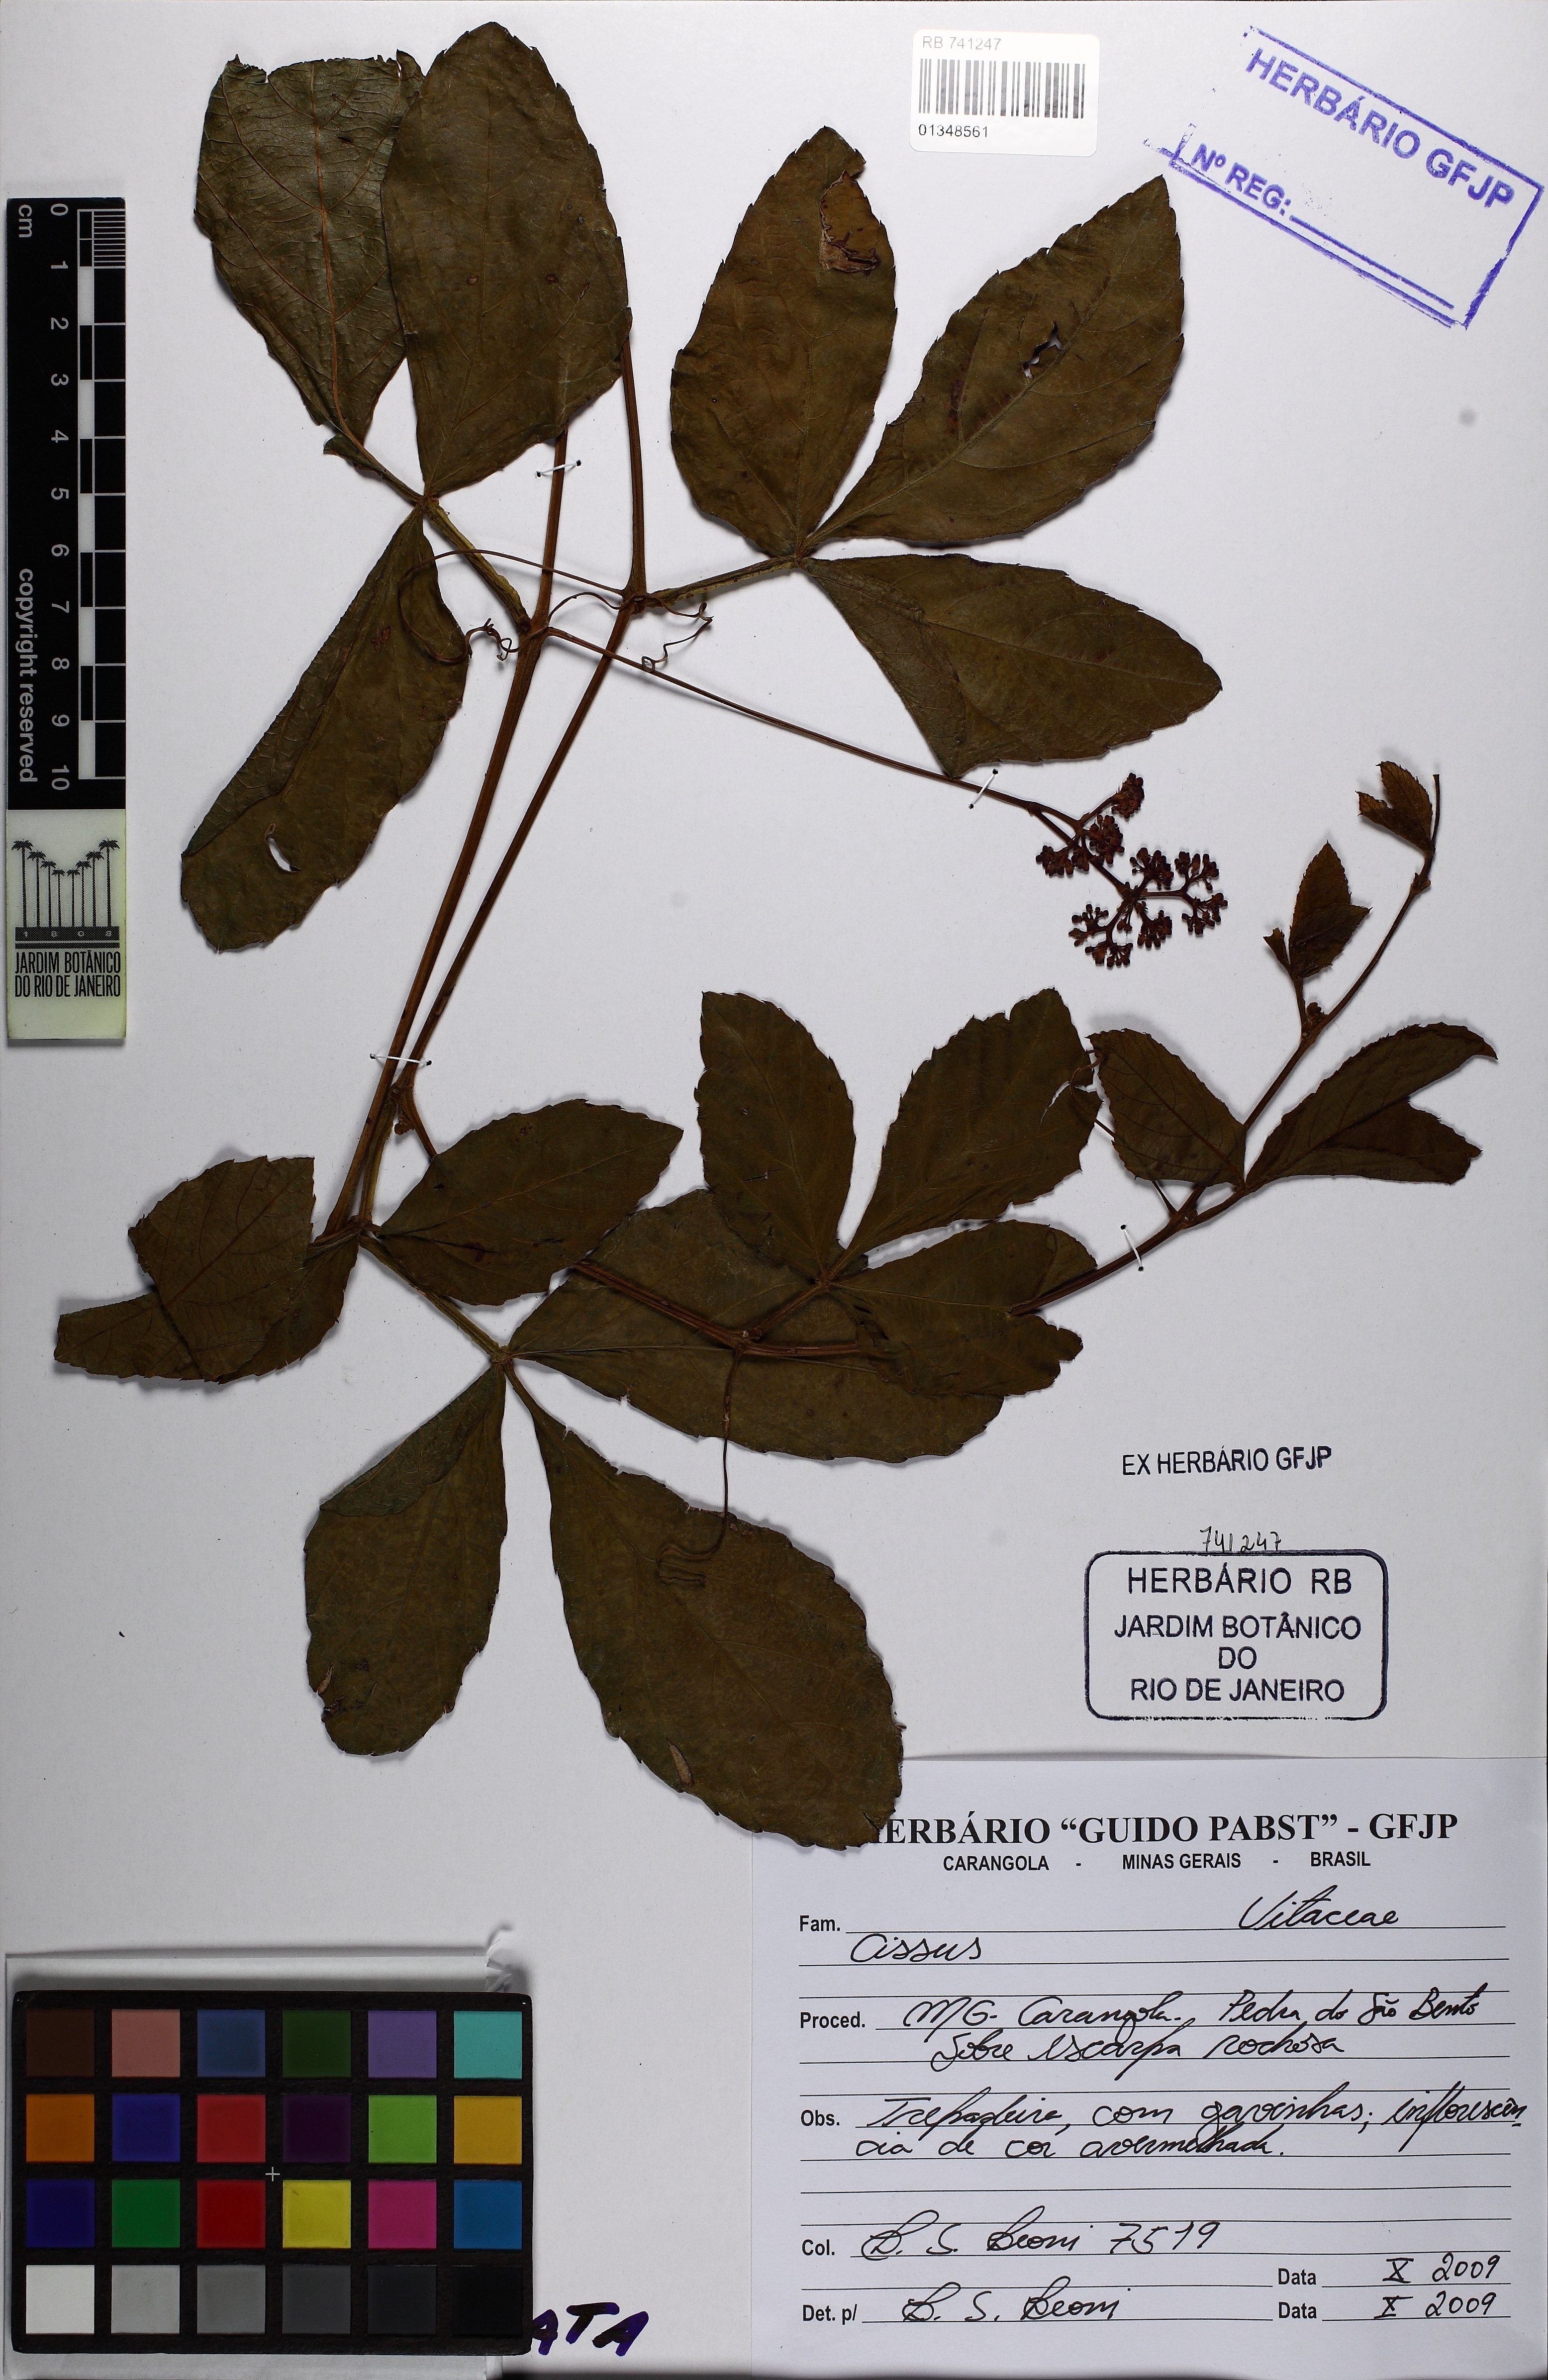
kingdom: Plantae
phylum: Tracheophyta
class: Magnoliopsida
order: Vitales
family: Vitaceae
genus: Cissus
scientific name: Cissus
